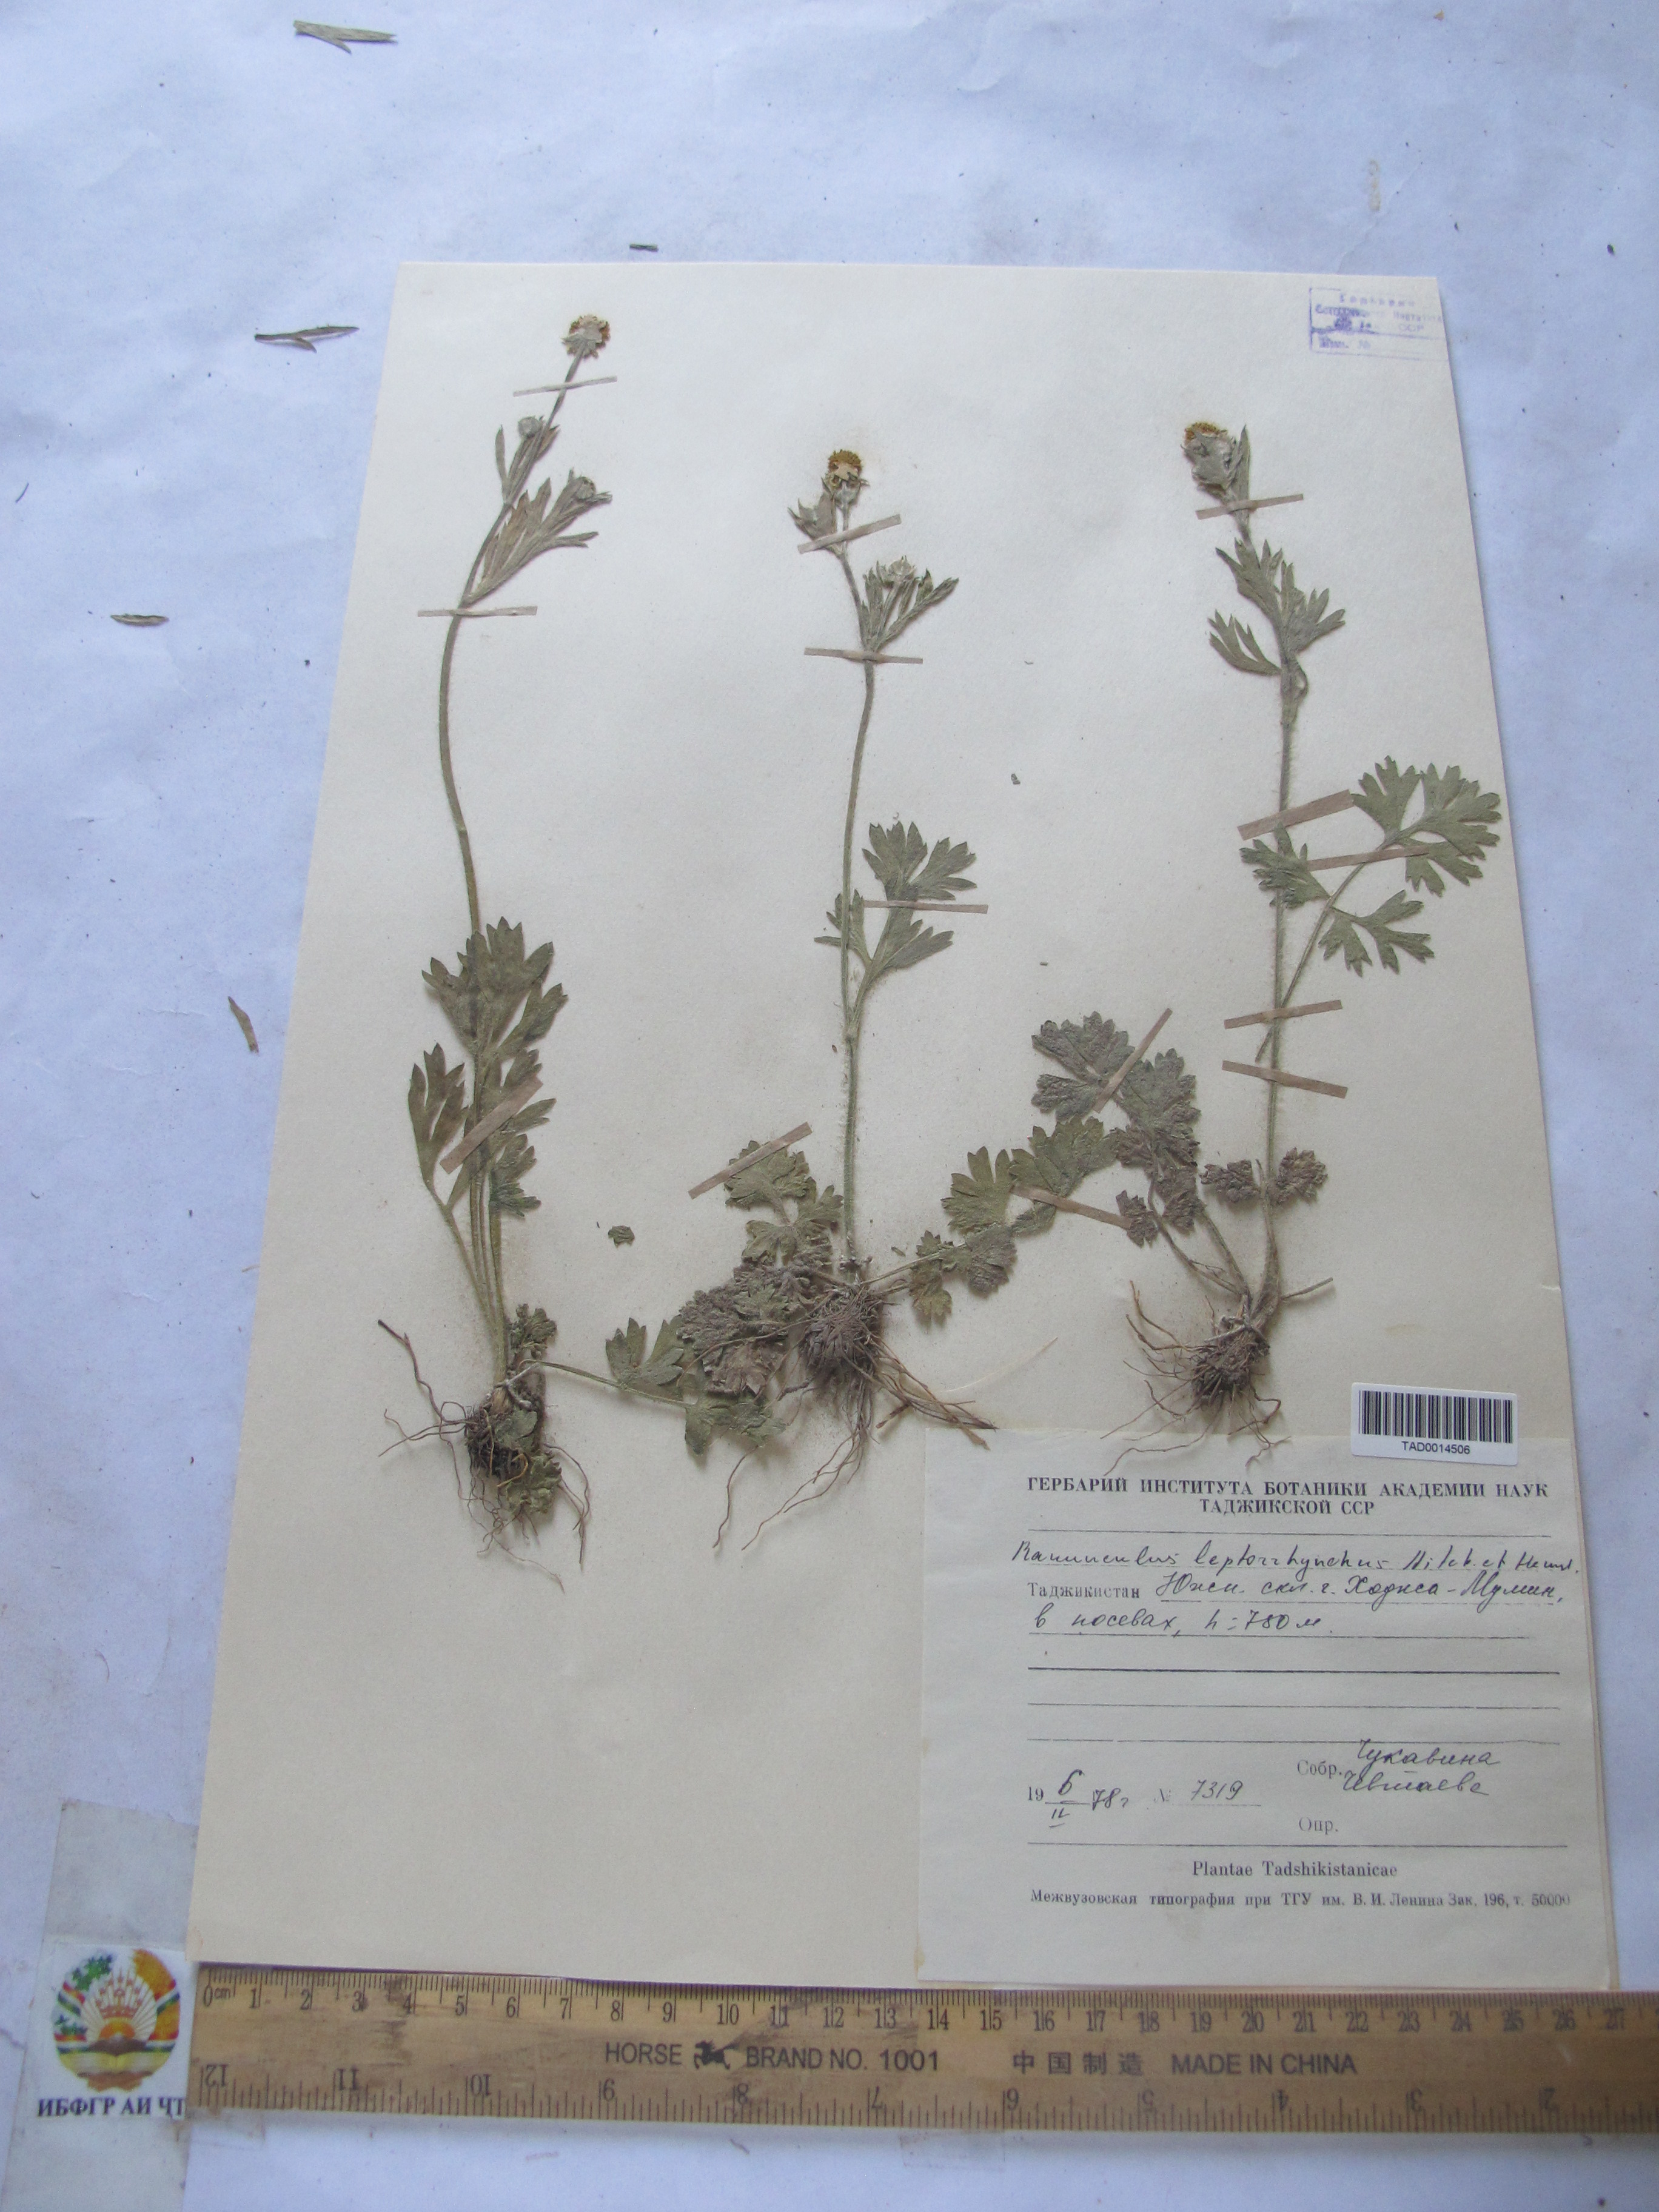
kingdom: Plantae
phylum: Tracheophyta
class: Magnoliopsida
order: Ranunculales
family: Ranunculaceae
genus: Ranunculus
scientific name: Ranunculus leptorrhynchus
